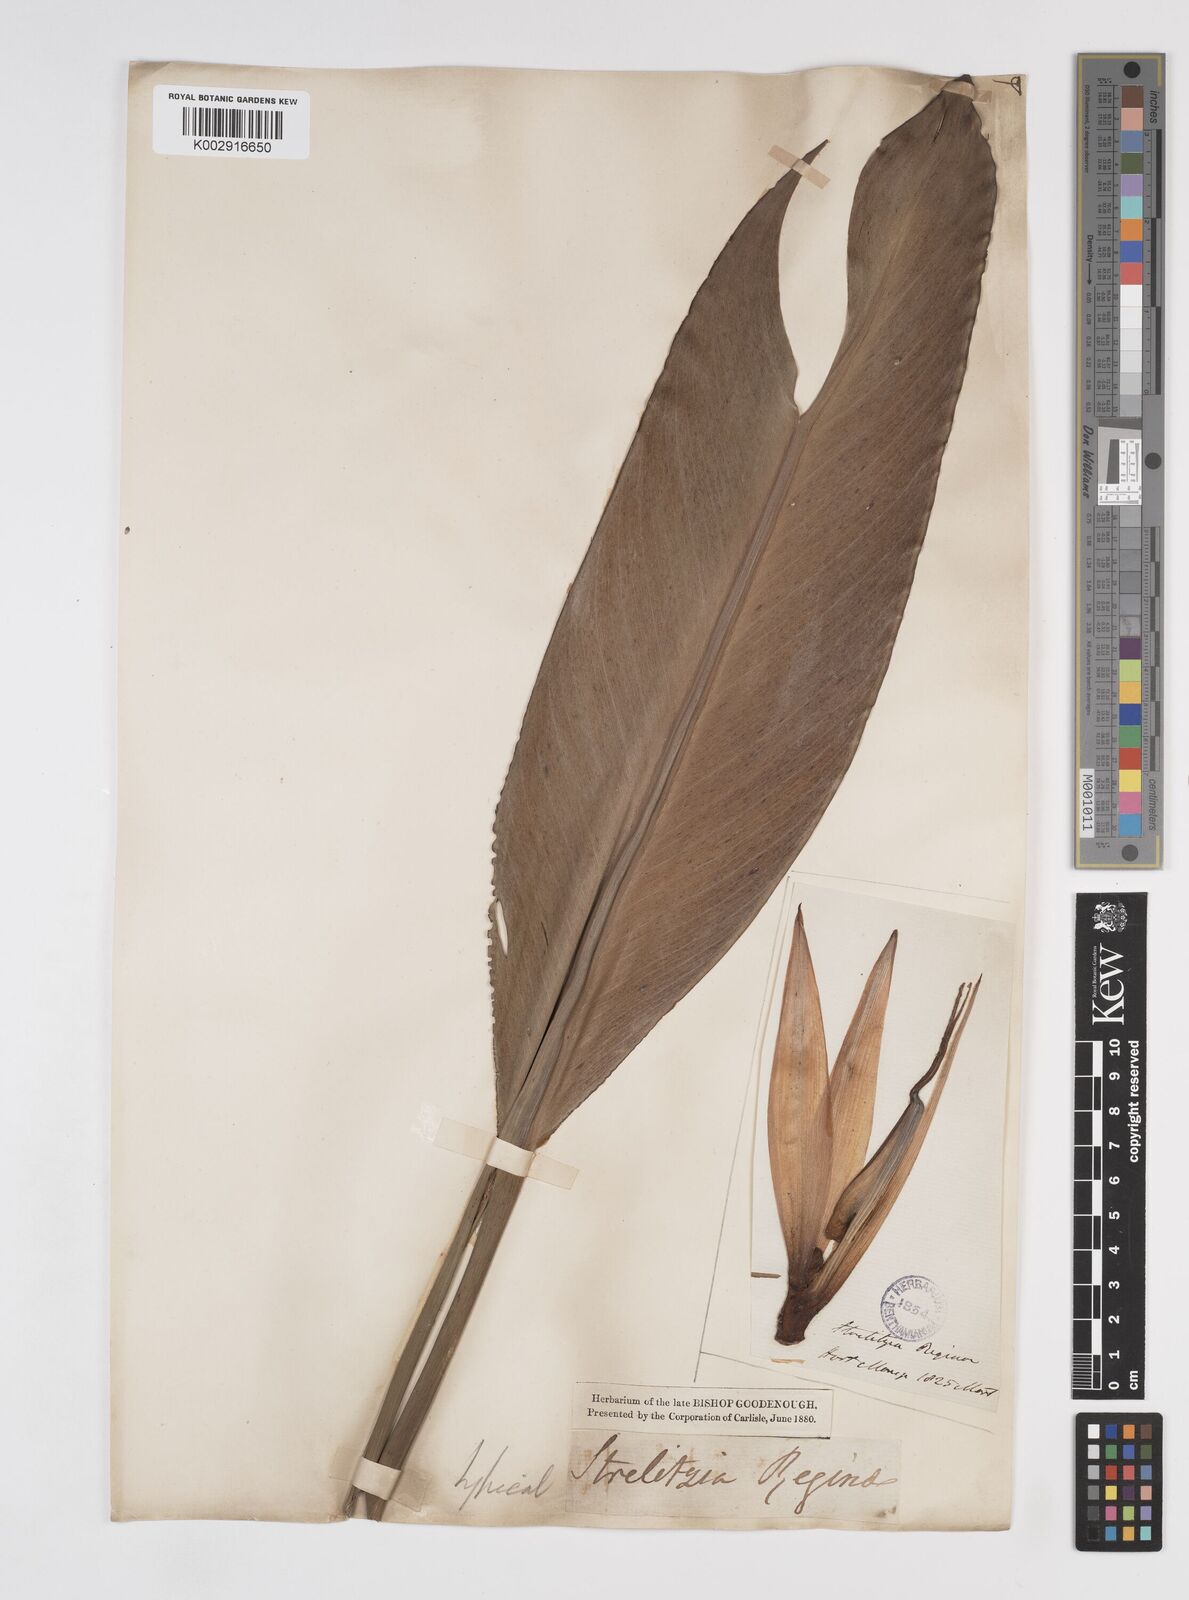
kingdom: Plantae
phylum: Tracheophyta
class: Liliopsida
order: Zingiberales
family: Strelitziaceae
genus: Strelitzia
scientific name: Strelitzia reginae
